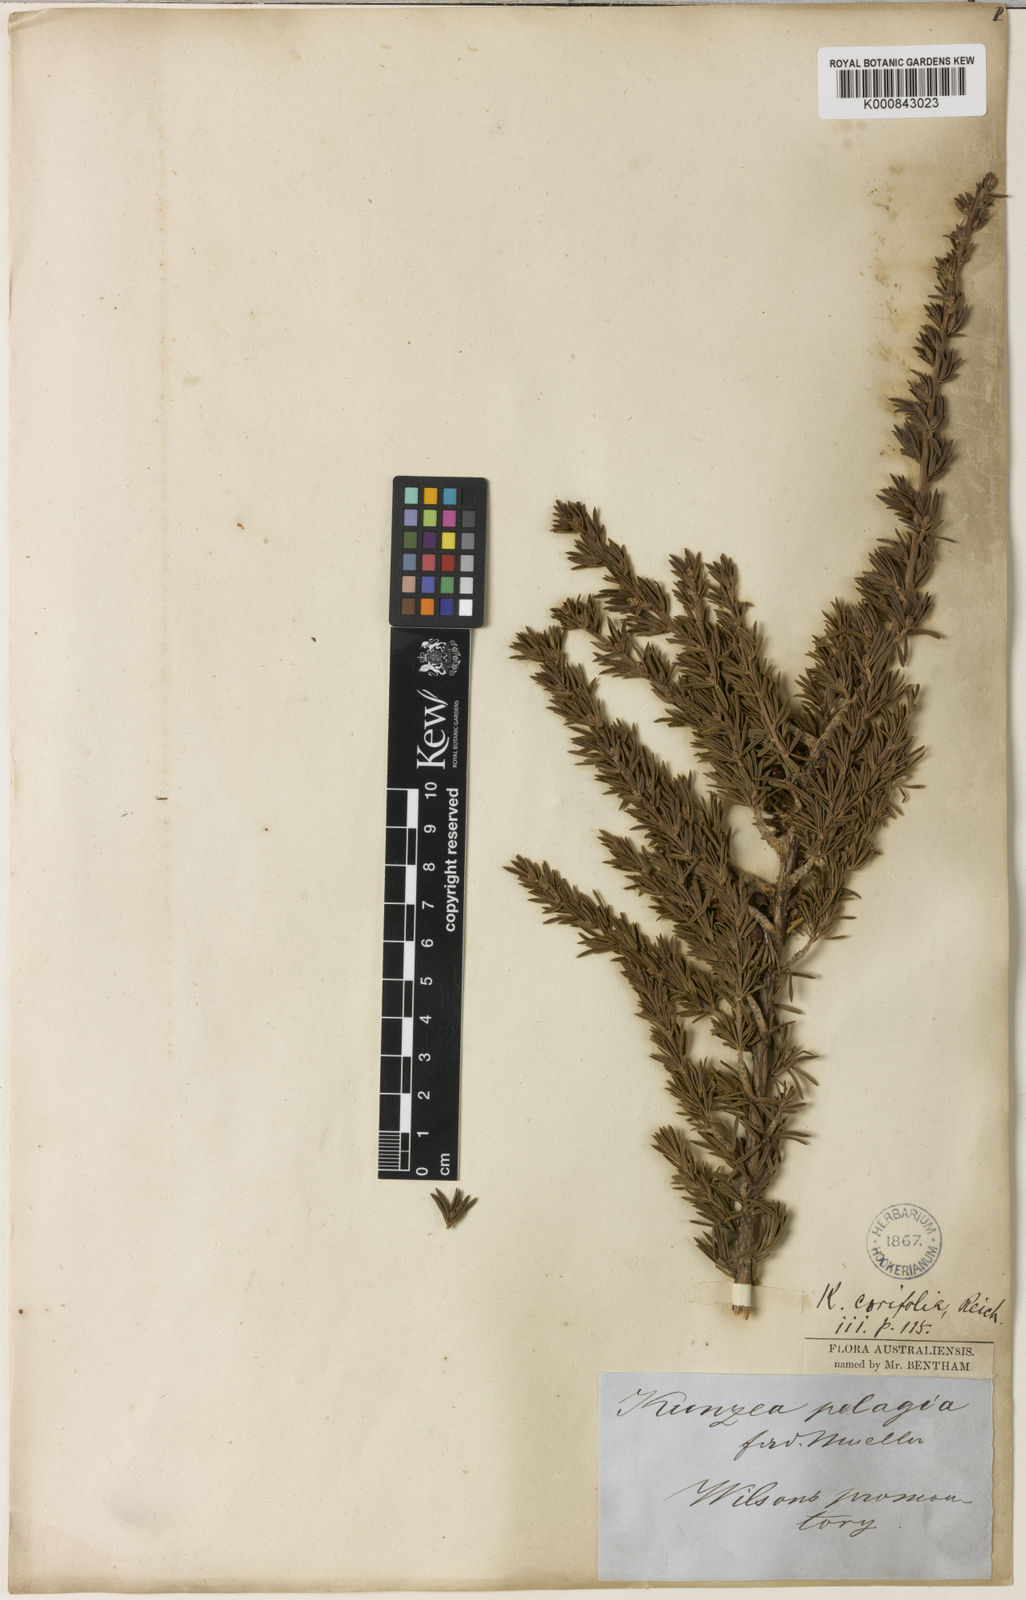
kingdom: Plantae
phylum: Tracheophyta
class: Magnoliopsida
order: Myrtales
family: Myrtaceae
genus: Kunzea
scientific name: Kunzea ambigua
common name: Tickbush
